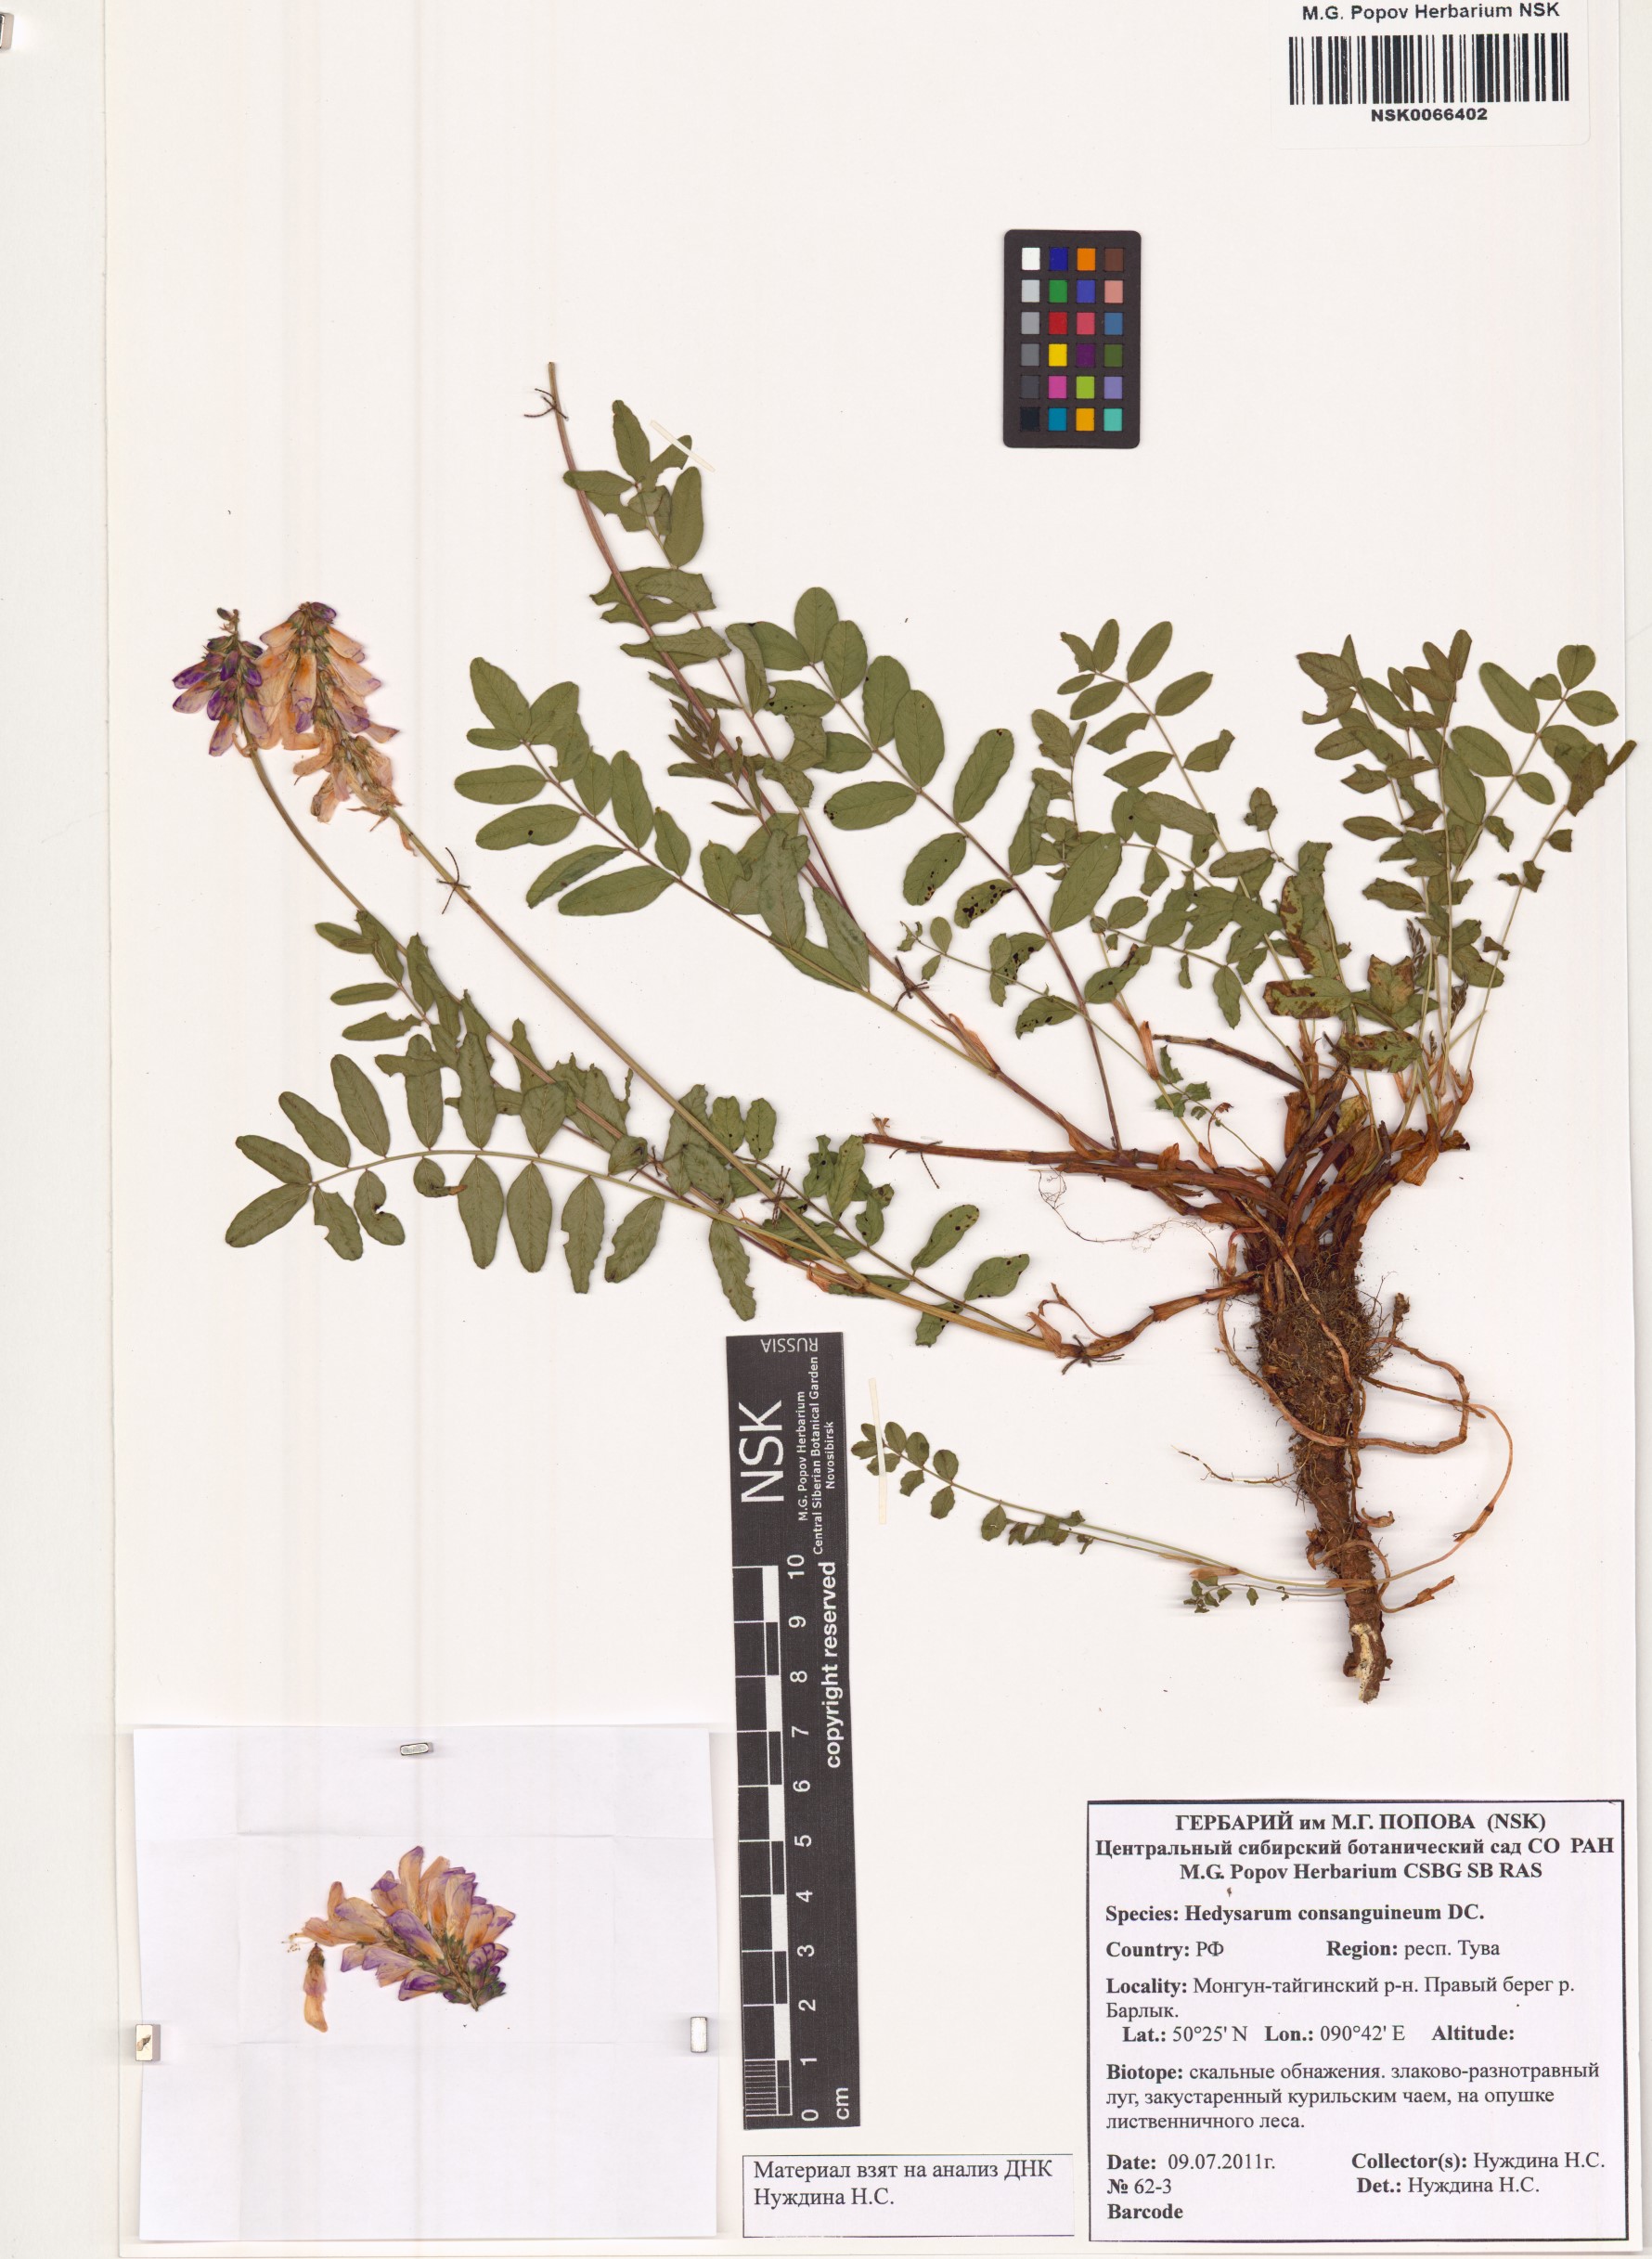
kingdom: Plantae
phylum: Tracheophyta
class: Magnoliopsida
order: Fabales
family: Fabaceae
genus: Hedysarum
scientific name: Hedysarum consanguineum
